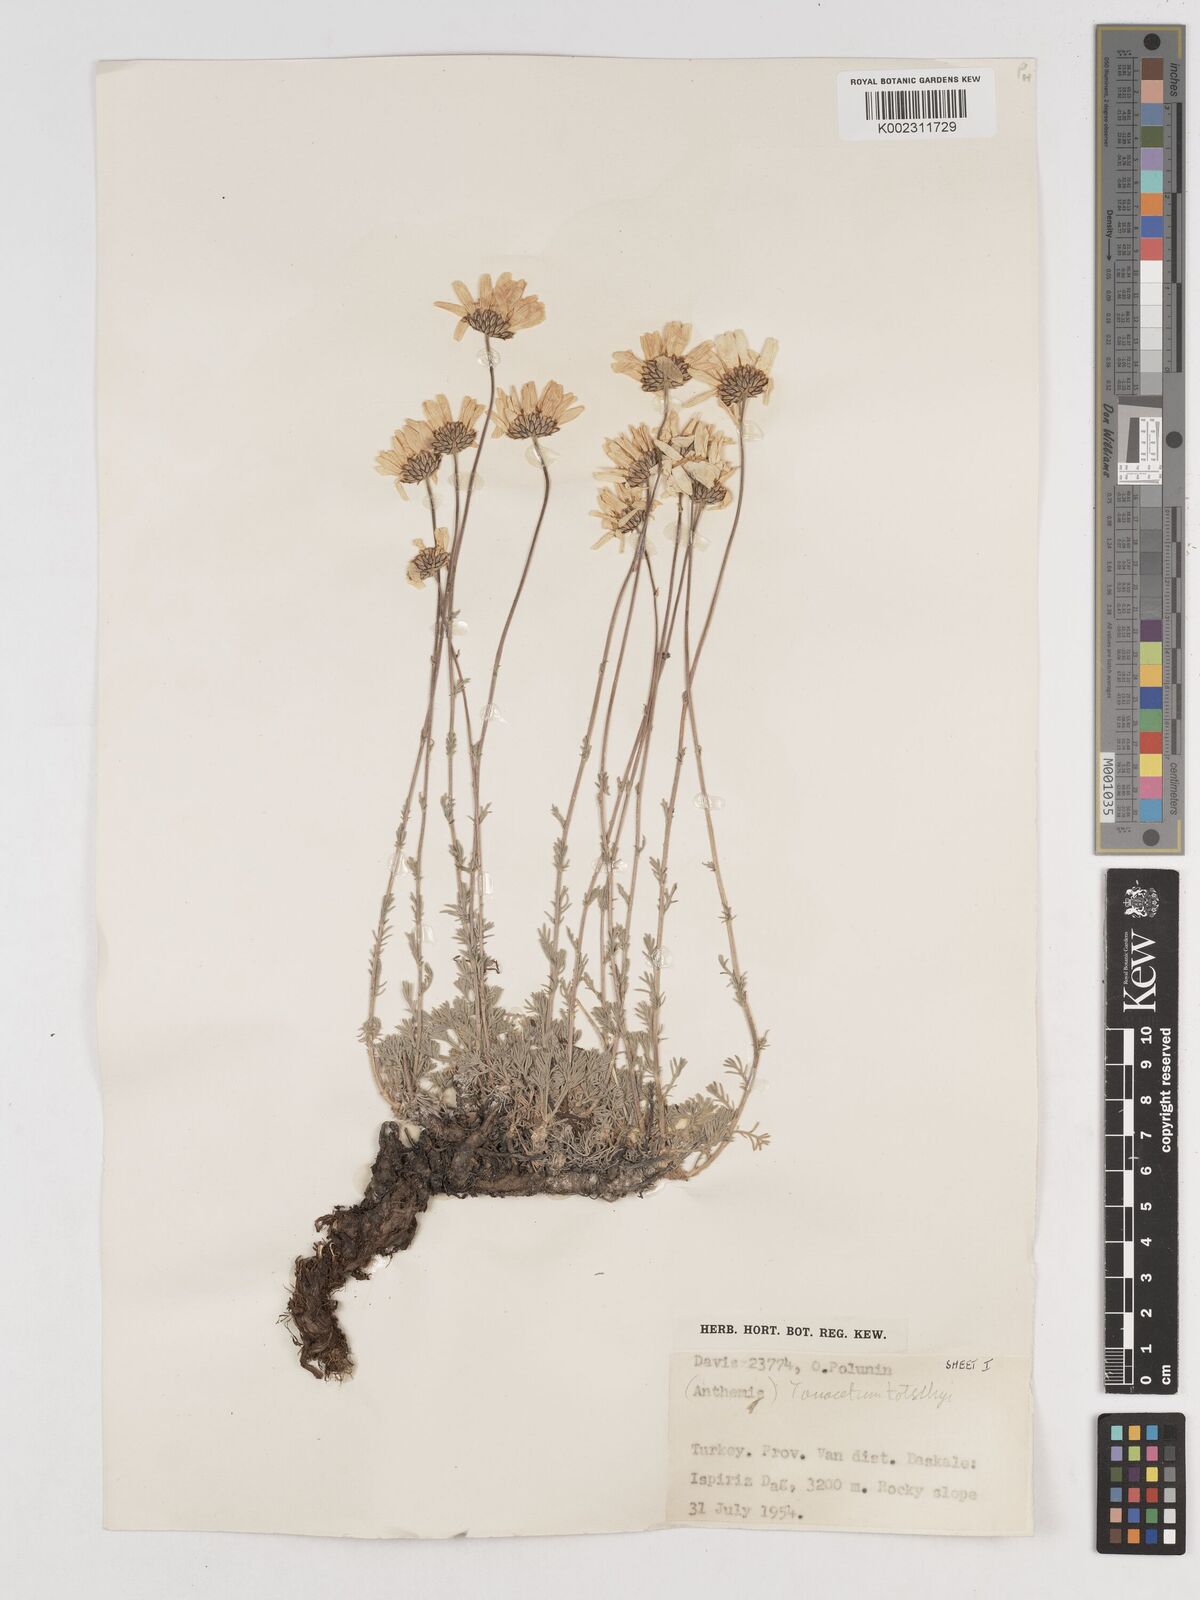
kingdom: Plantae
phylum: Tracheophyta
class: Magnoliopsida
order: Asterales
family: Asteraceae
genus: Tanacetum
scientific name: Tanacetum kotschyi
